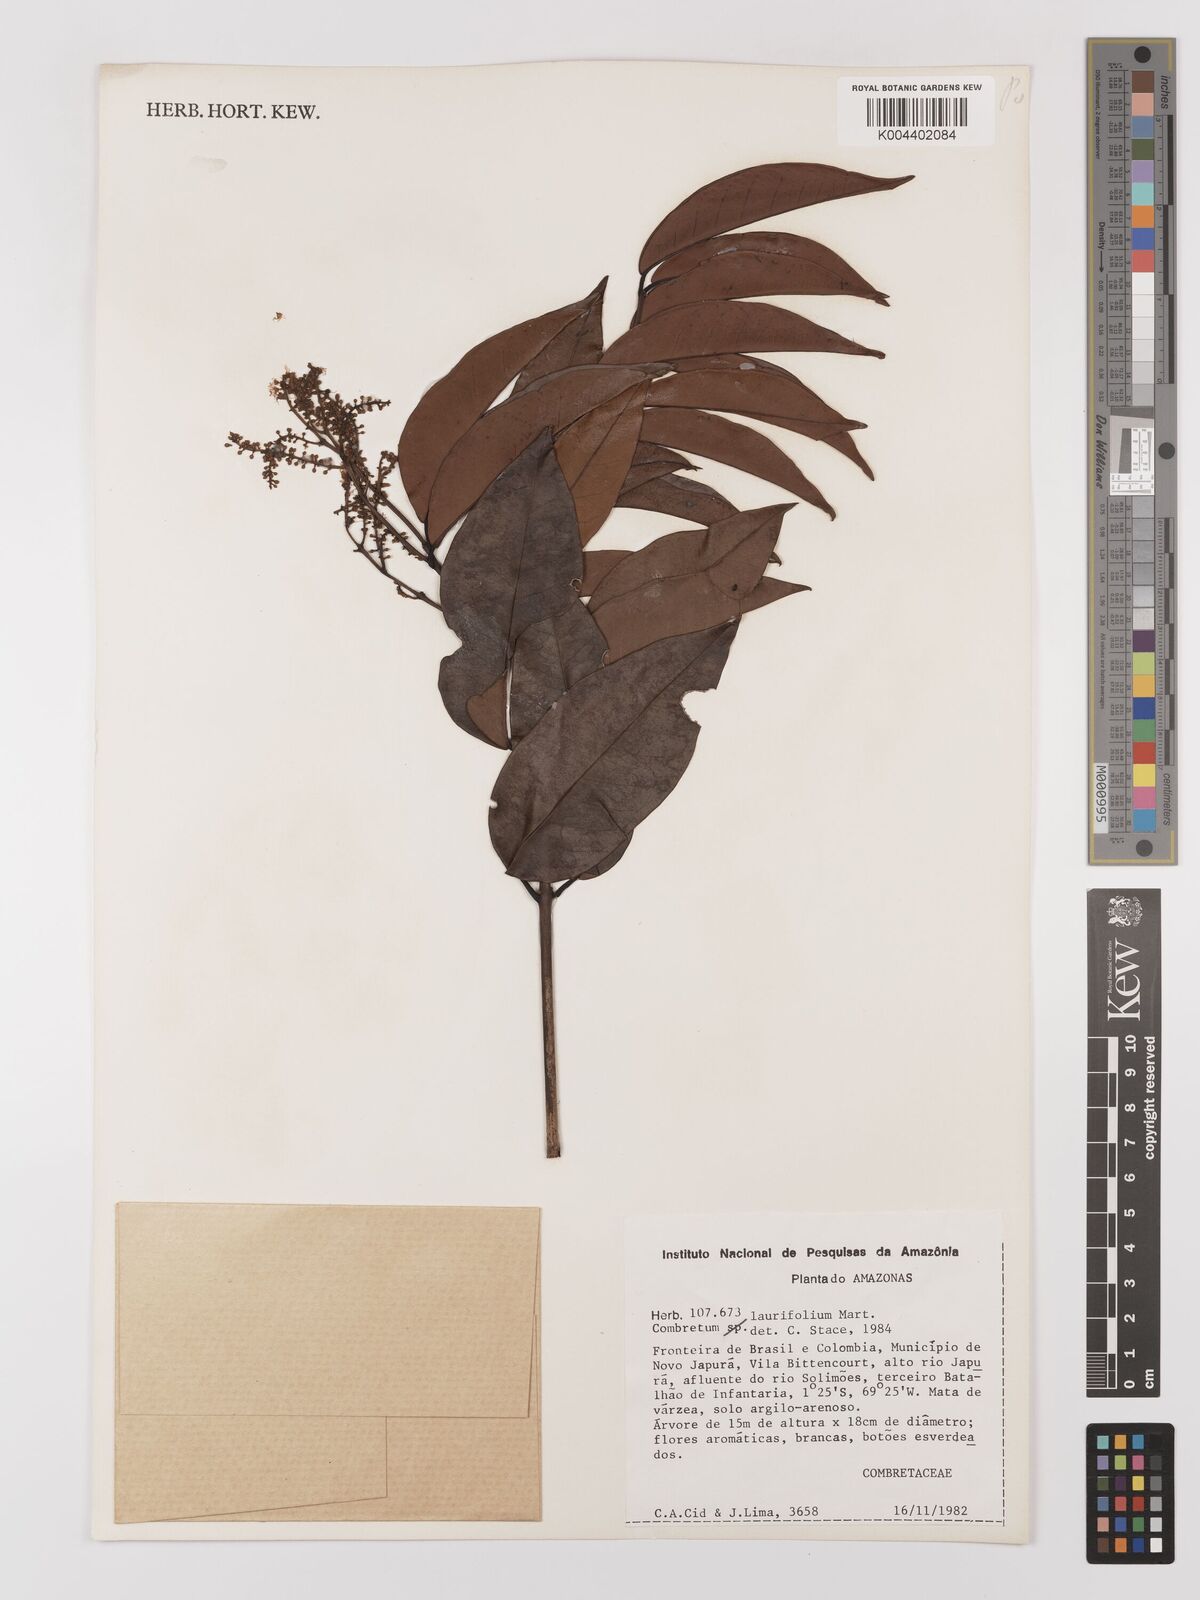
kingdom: Plantae
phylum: Tracheophyta
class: Magnoliopsida
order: Myrtales
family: Combretaceae
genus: Combretum
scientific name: Combretum
